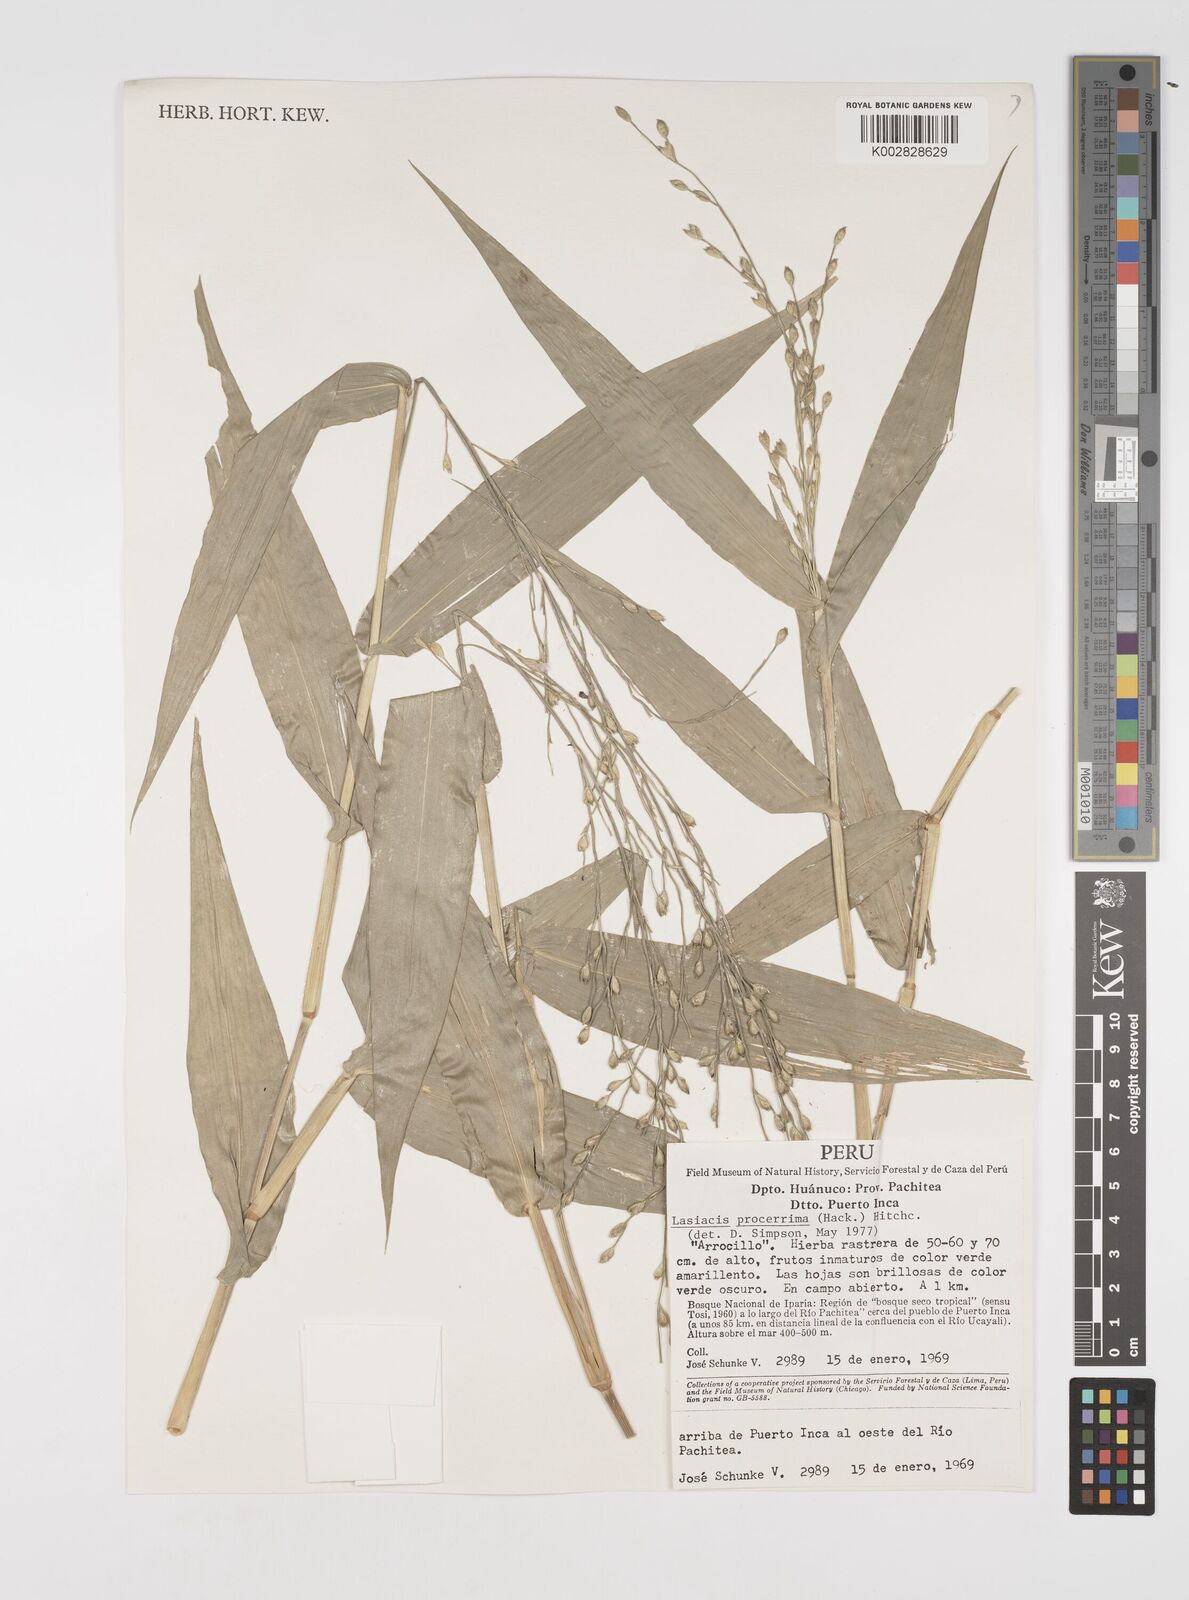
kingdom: Plantae
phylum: Tracheophyta
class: Liliopsida
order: Poales
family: Poaceae
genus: Acroceras
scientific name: Acroceras zizanioides
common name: Oat grass
